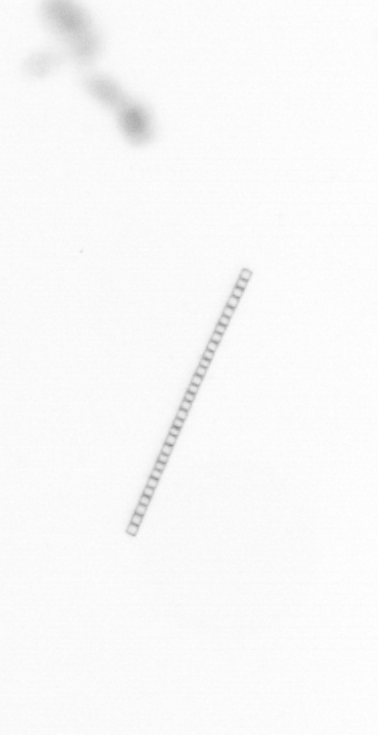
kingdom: Chromista
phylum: Ochrophyta
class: Bacillariophyceae
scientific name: Bacillariophyceae
